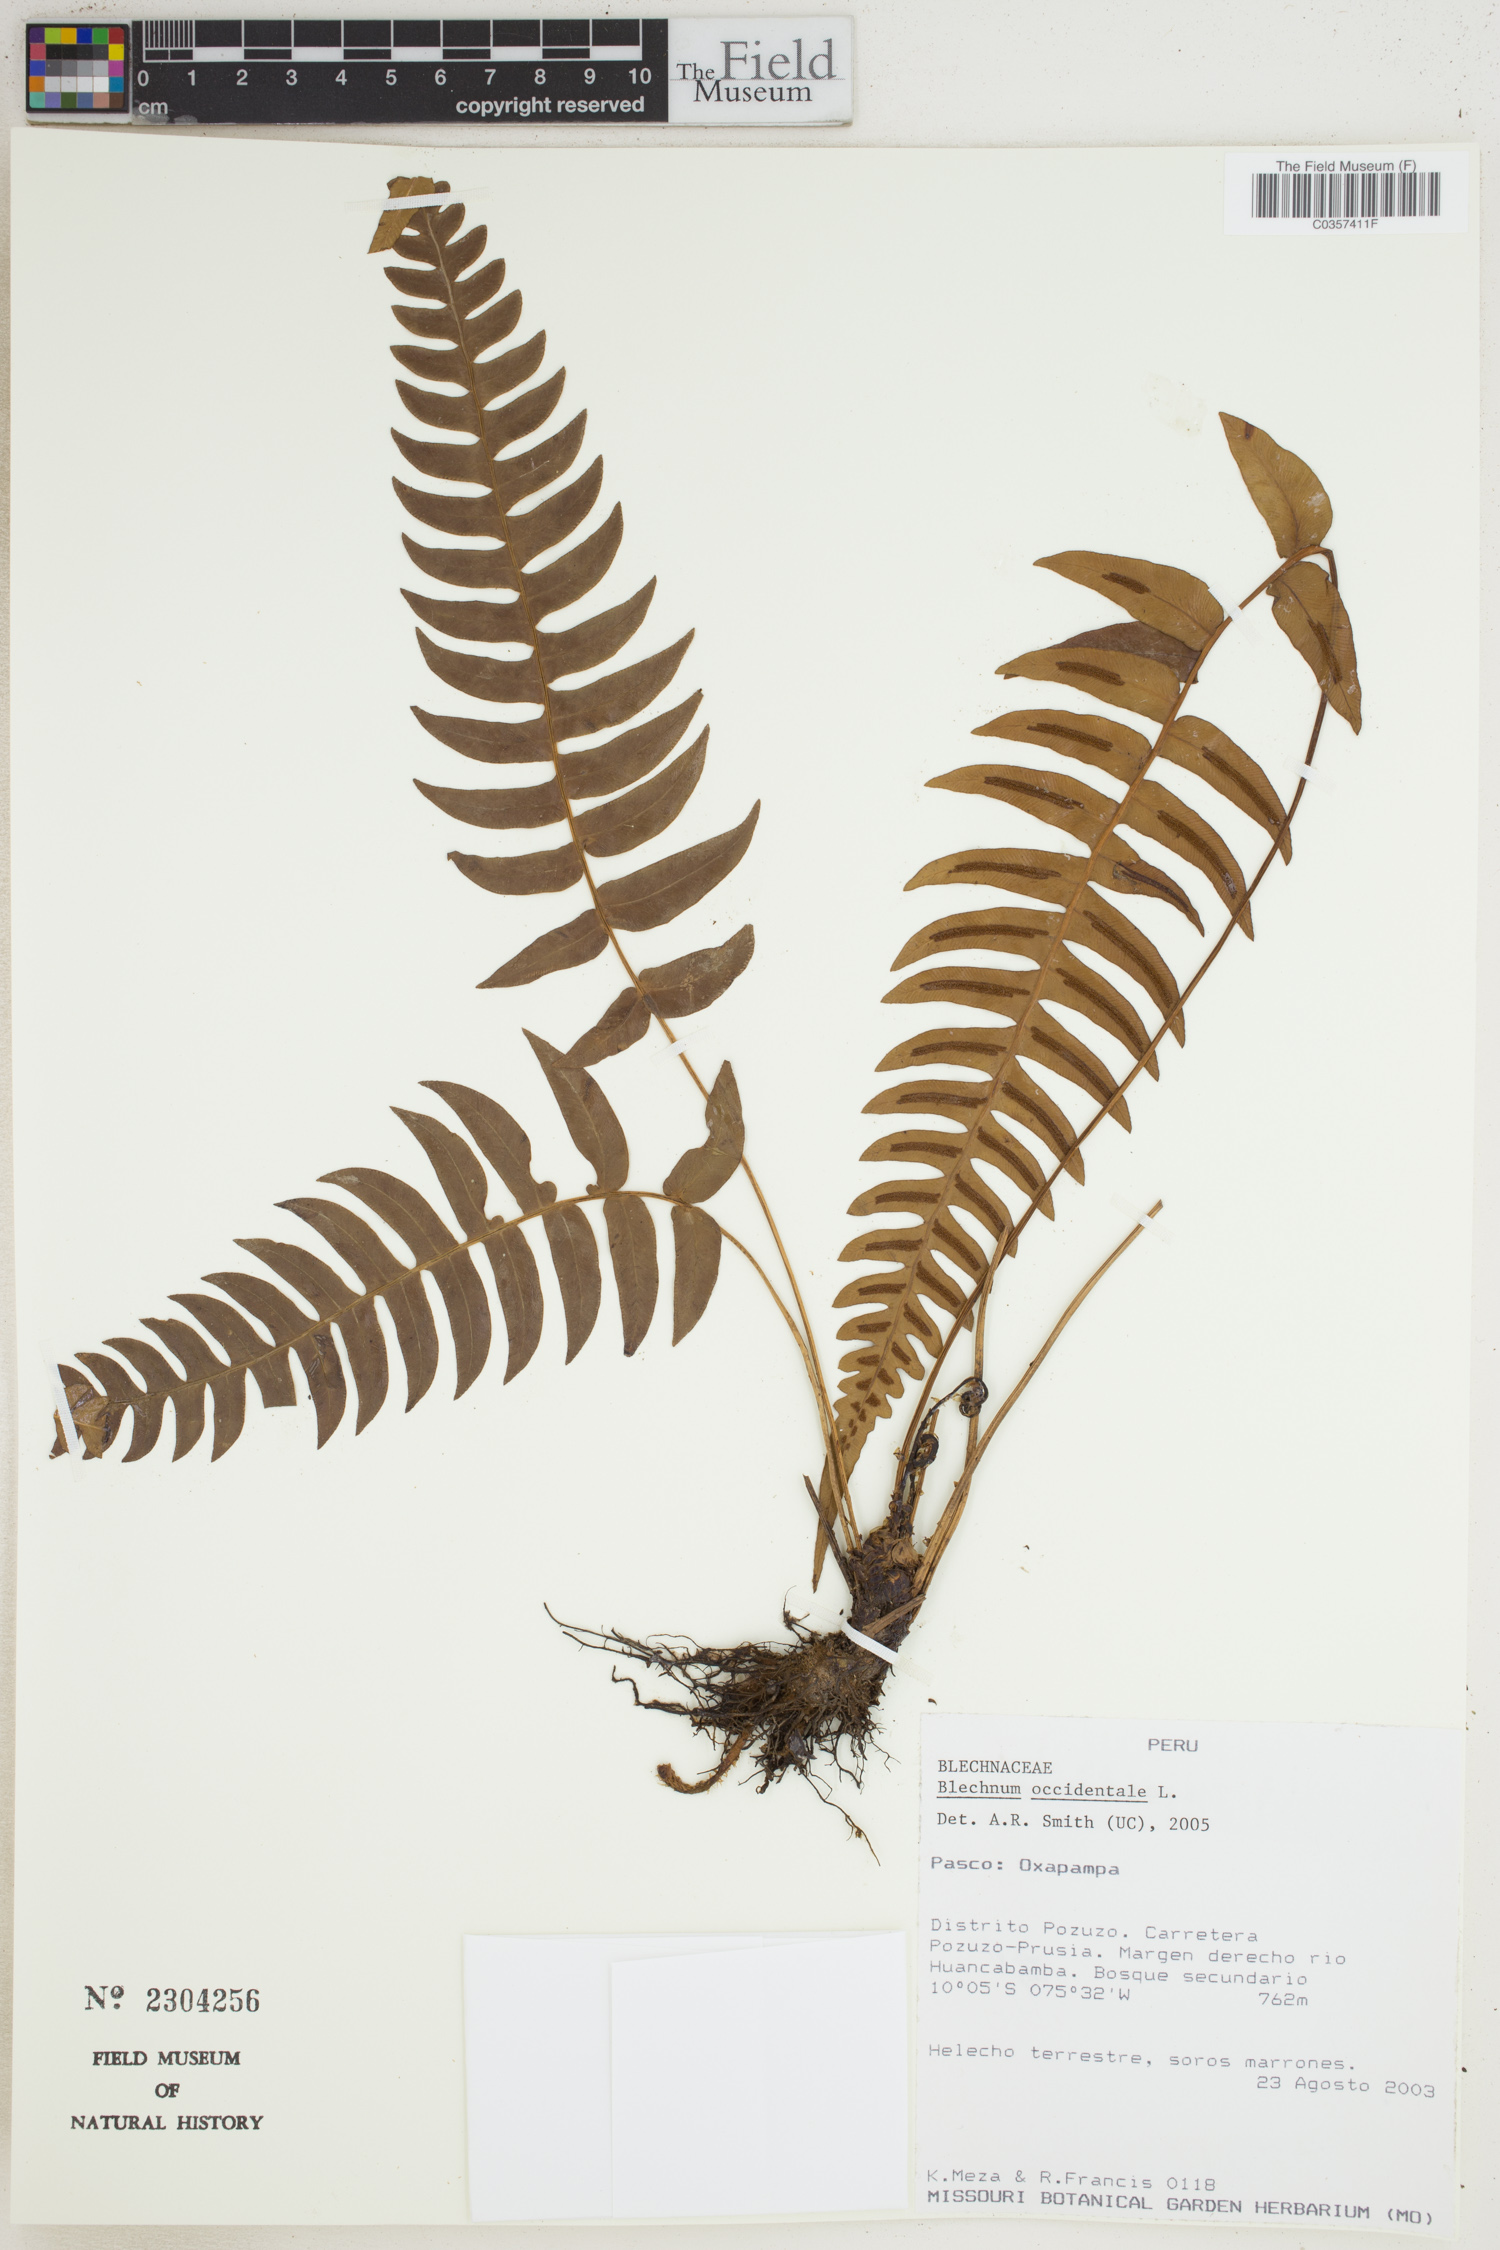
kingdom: Plantae
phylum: Tracheophyta
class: Polypodiopsida
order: Polypodiales
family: Blechnaceae
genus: Blechnum
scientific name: Blechnum occidentale
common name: Hammock fern
